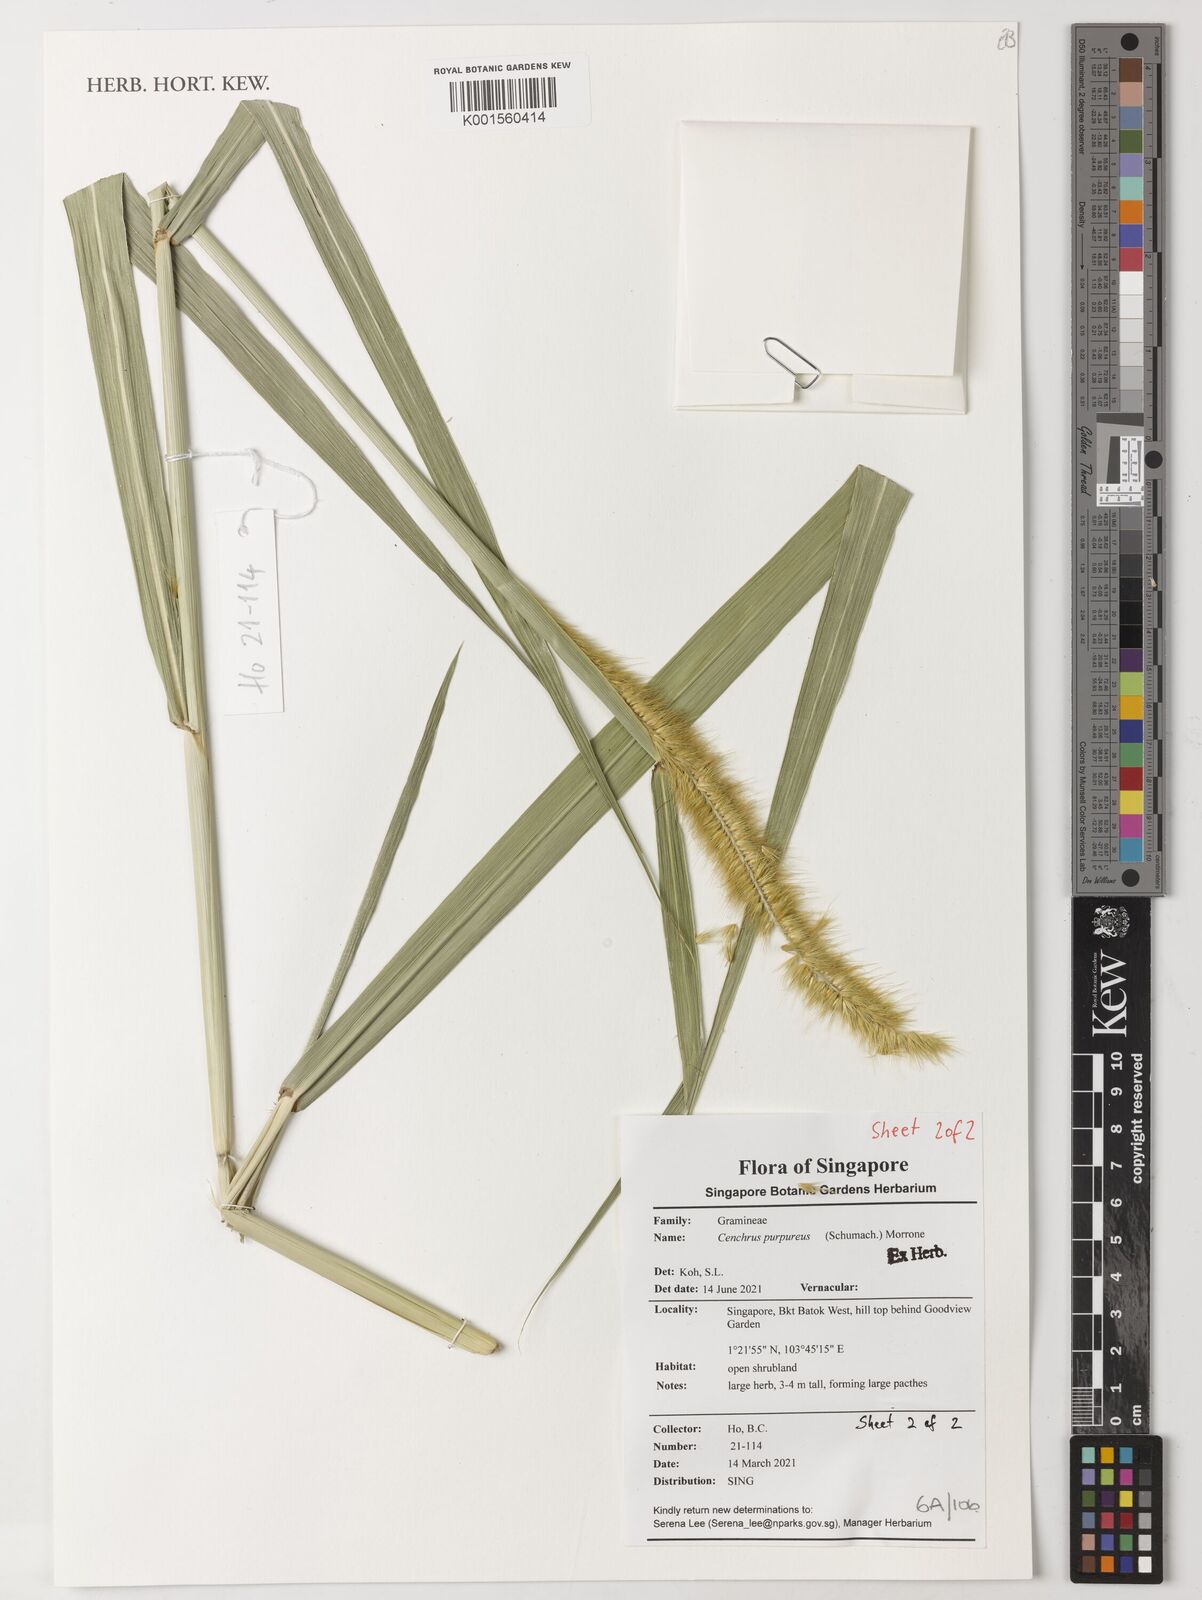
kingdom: Plantae
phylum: Tracheophyta
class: Liliopsida
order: Poales
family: Poaceae
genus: Cenchrus
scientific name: Cenchrus purpureus
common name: Elephant grass
